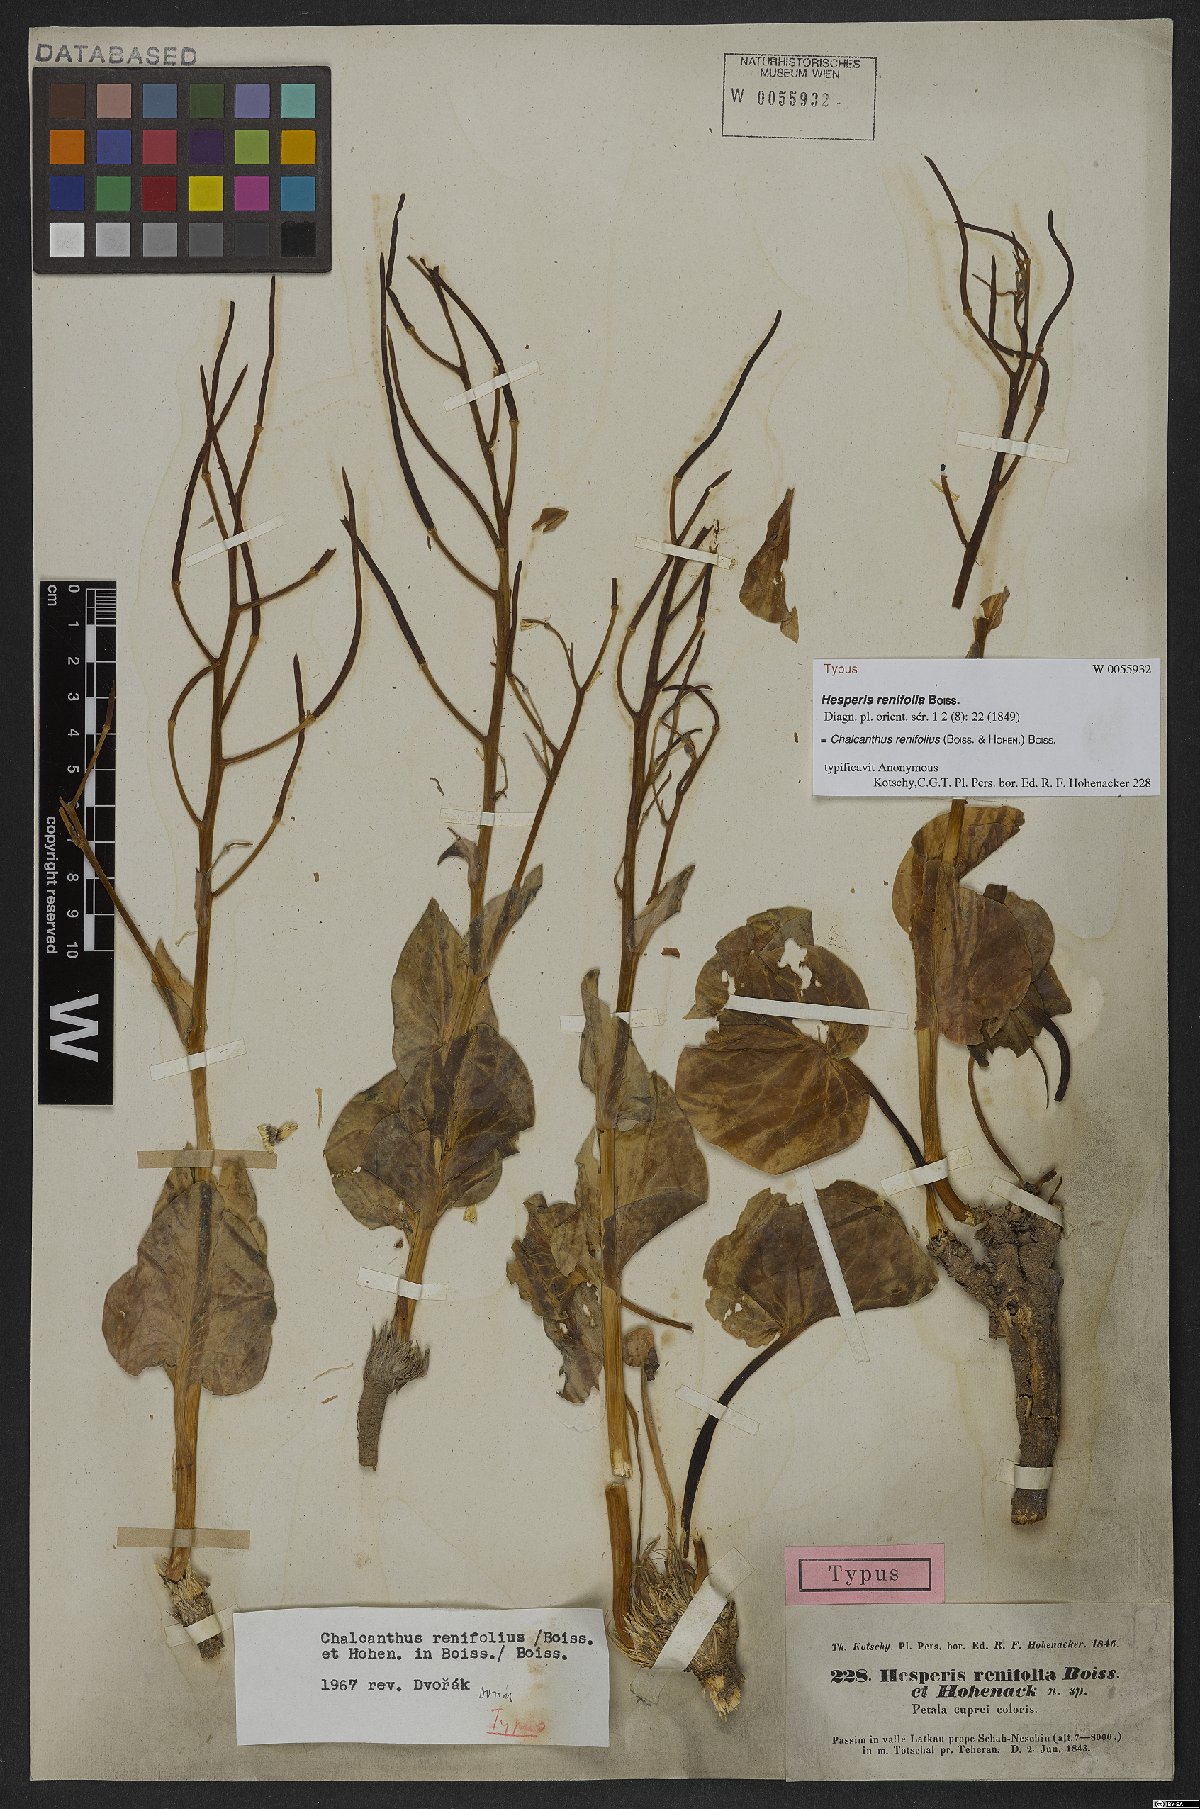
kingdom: Plantae
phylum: Tracheophyta
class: Magnoliopsida
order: Brassicales
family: Brassicaceae
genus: Eutrema
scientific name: Eutrema renifolium
